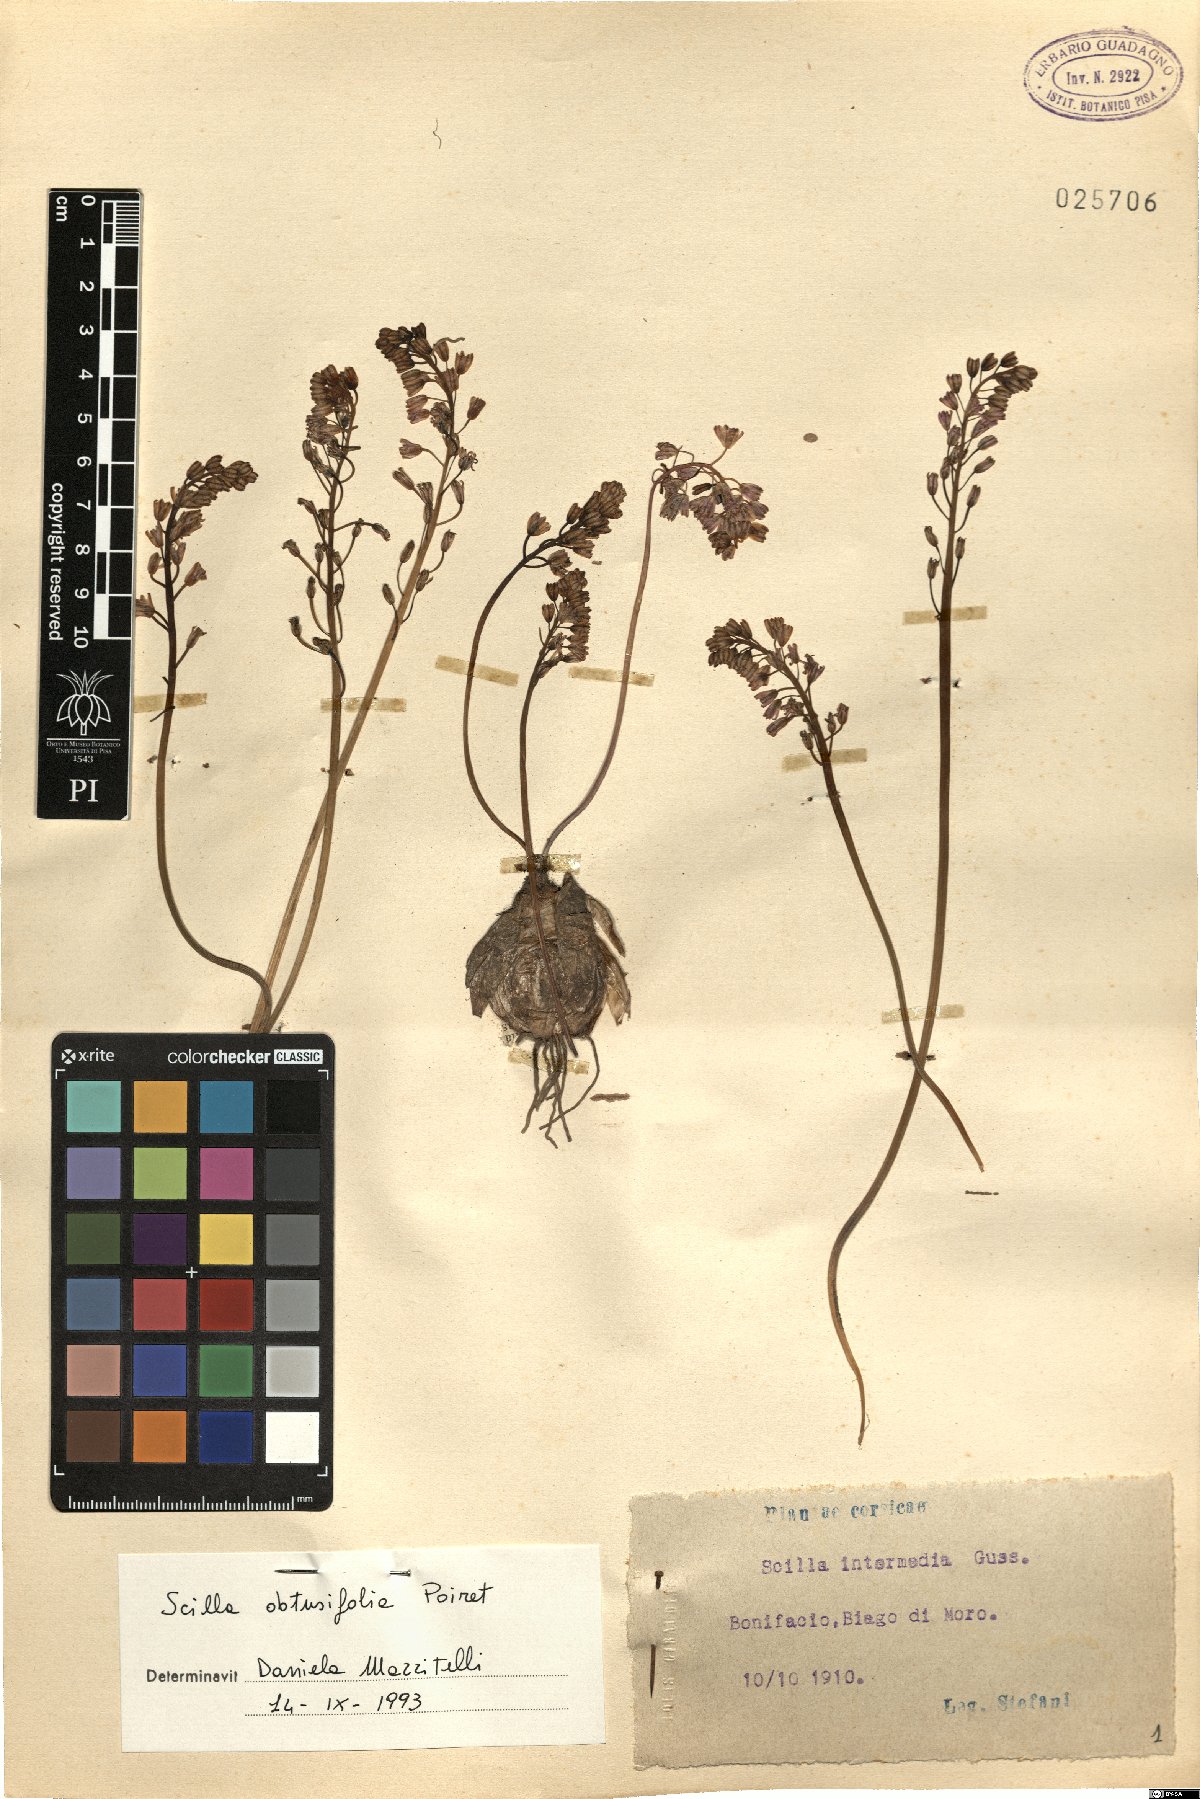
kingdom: Plantae
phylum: Tracheophyta
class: Liliopsida
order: Asparagales
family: Asparagaceae
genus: Prospero
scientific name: Prospero obtusifolium
